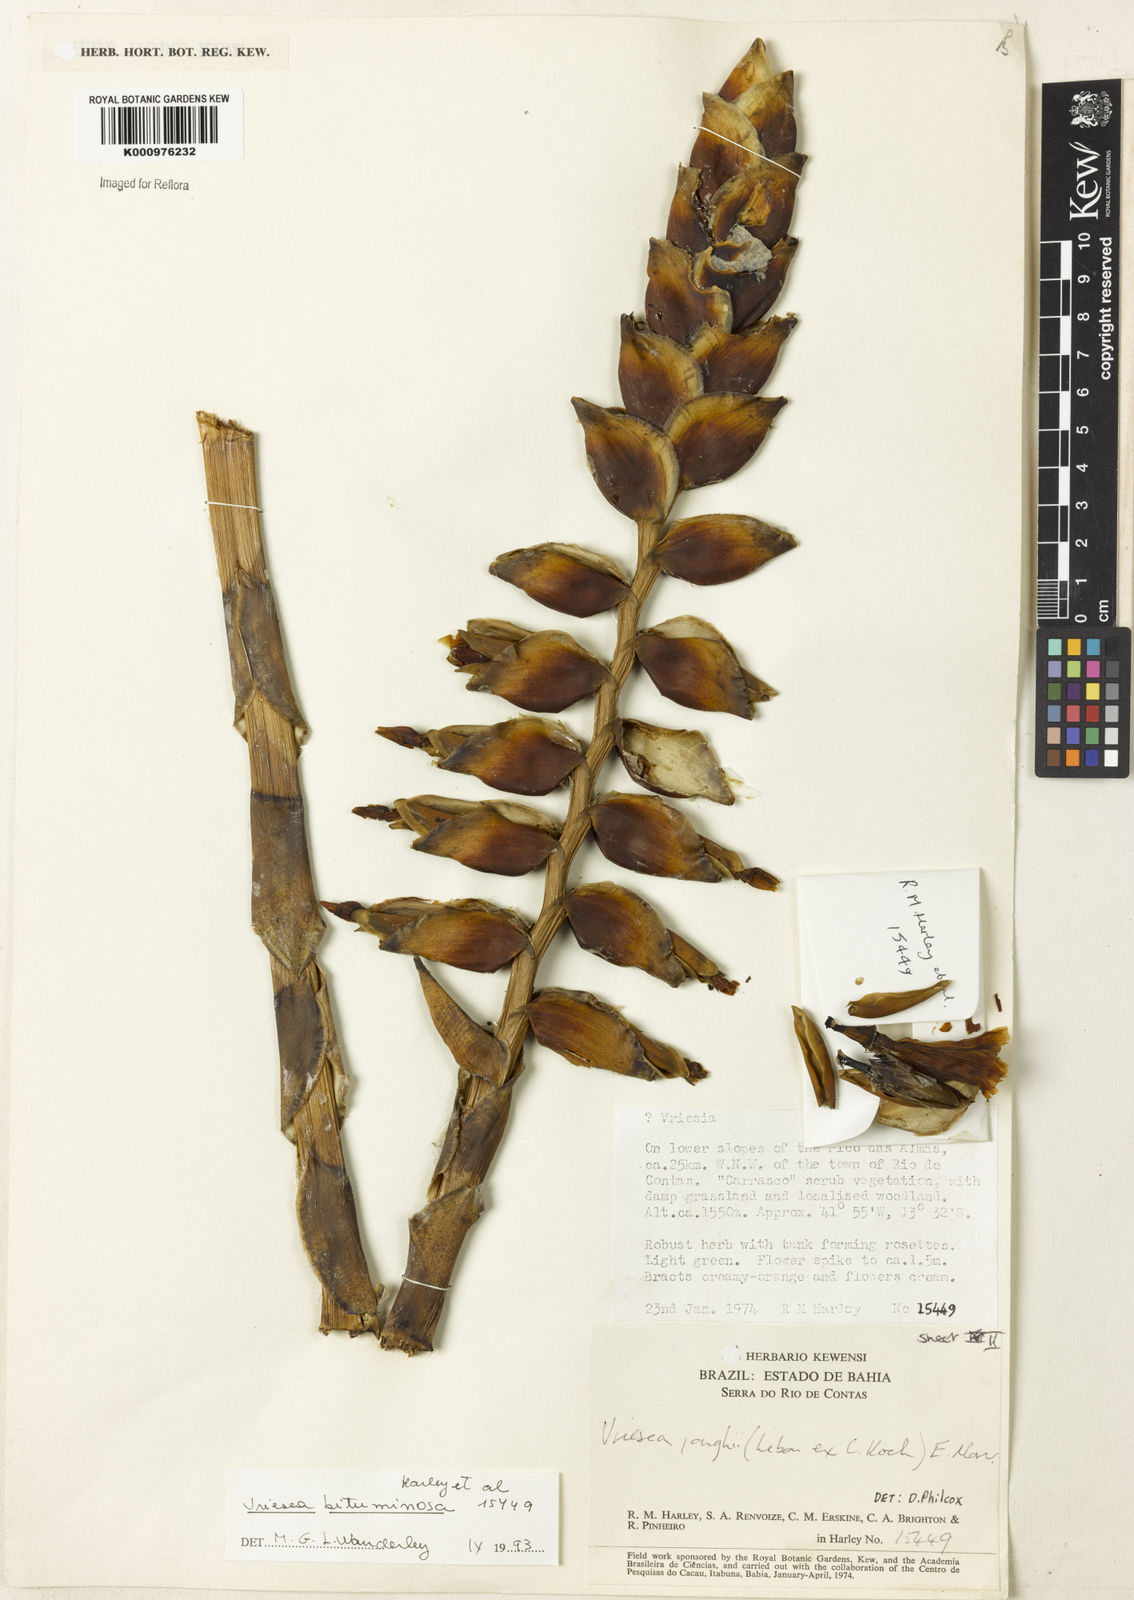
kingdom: Plantae
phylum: Tracheophyta
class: Liliopsida
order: Poales
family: Bromeliaceae
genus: Vriesea
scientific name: Vriesea jonghei
